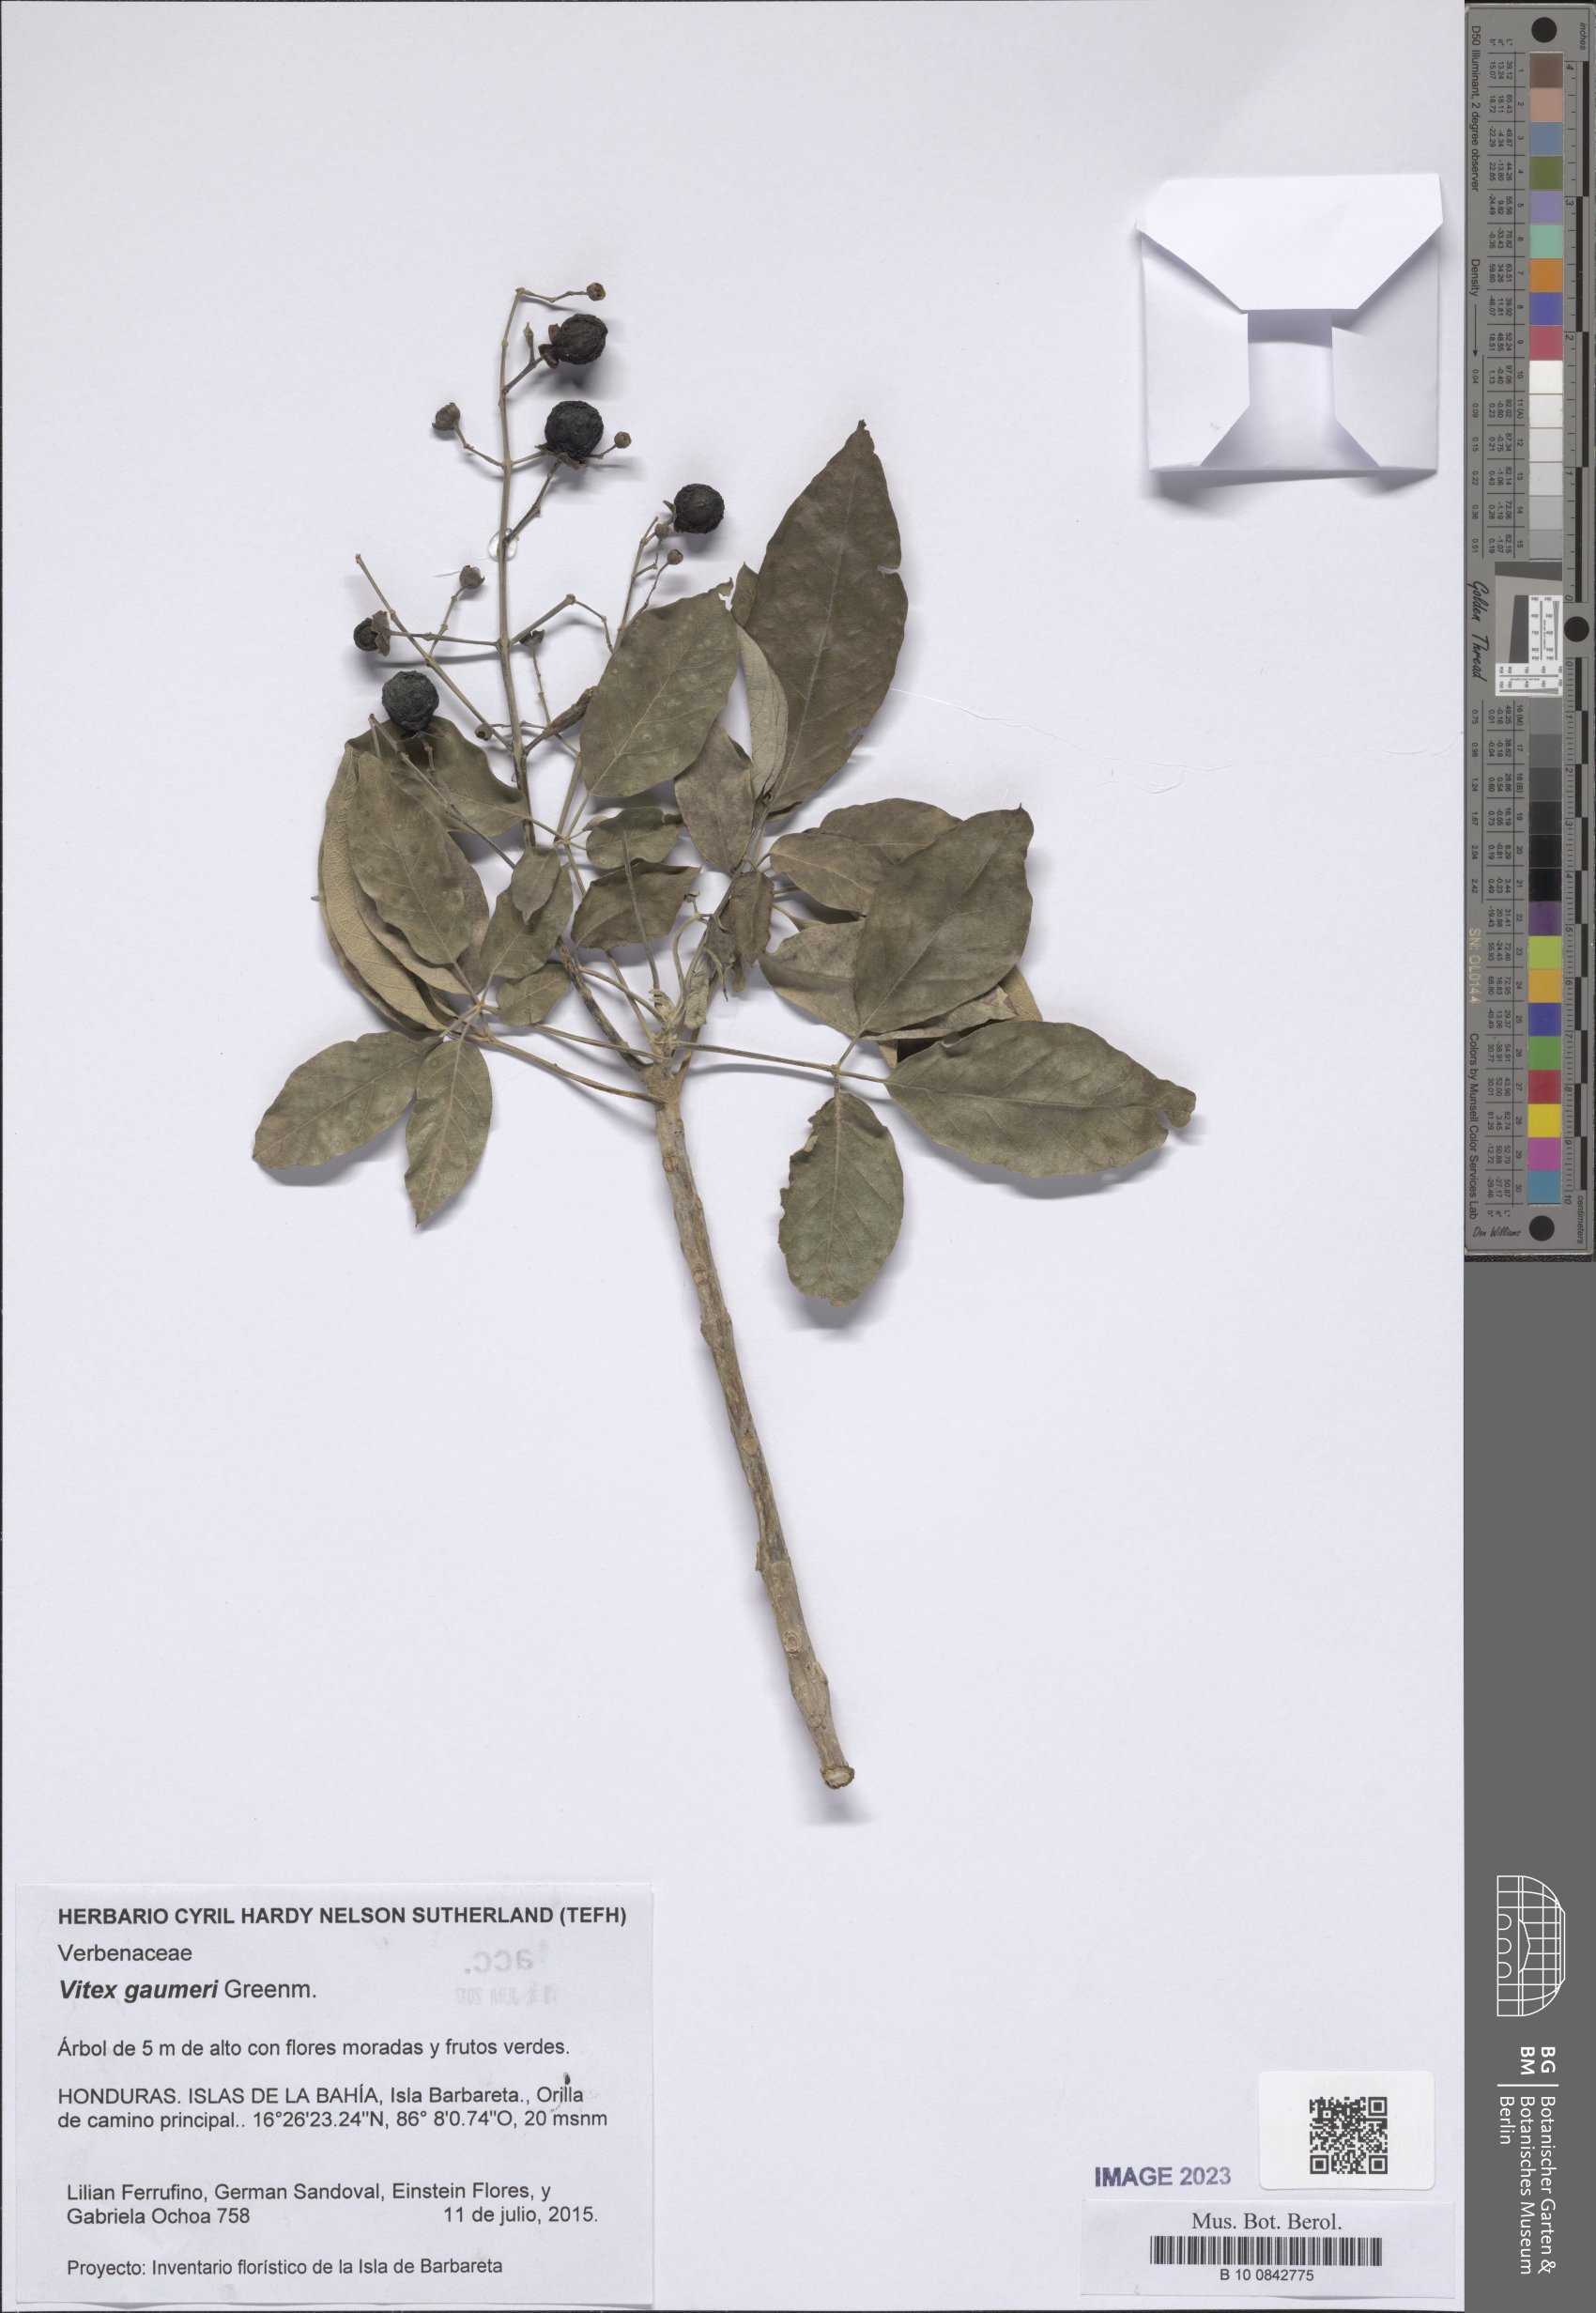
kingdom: Plantae
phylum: Tracheophyta
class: Magnoliopsida
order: Lamiales
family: Lamiaceae
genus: Vitex
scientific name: Vitex gaumeri
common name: Fiddlewood
